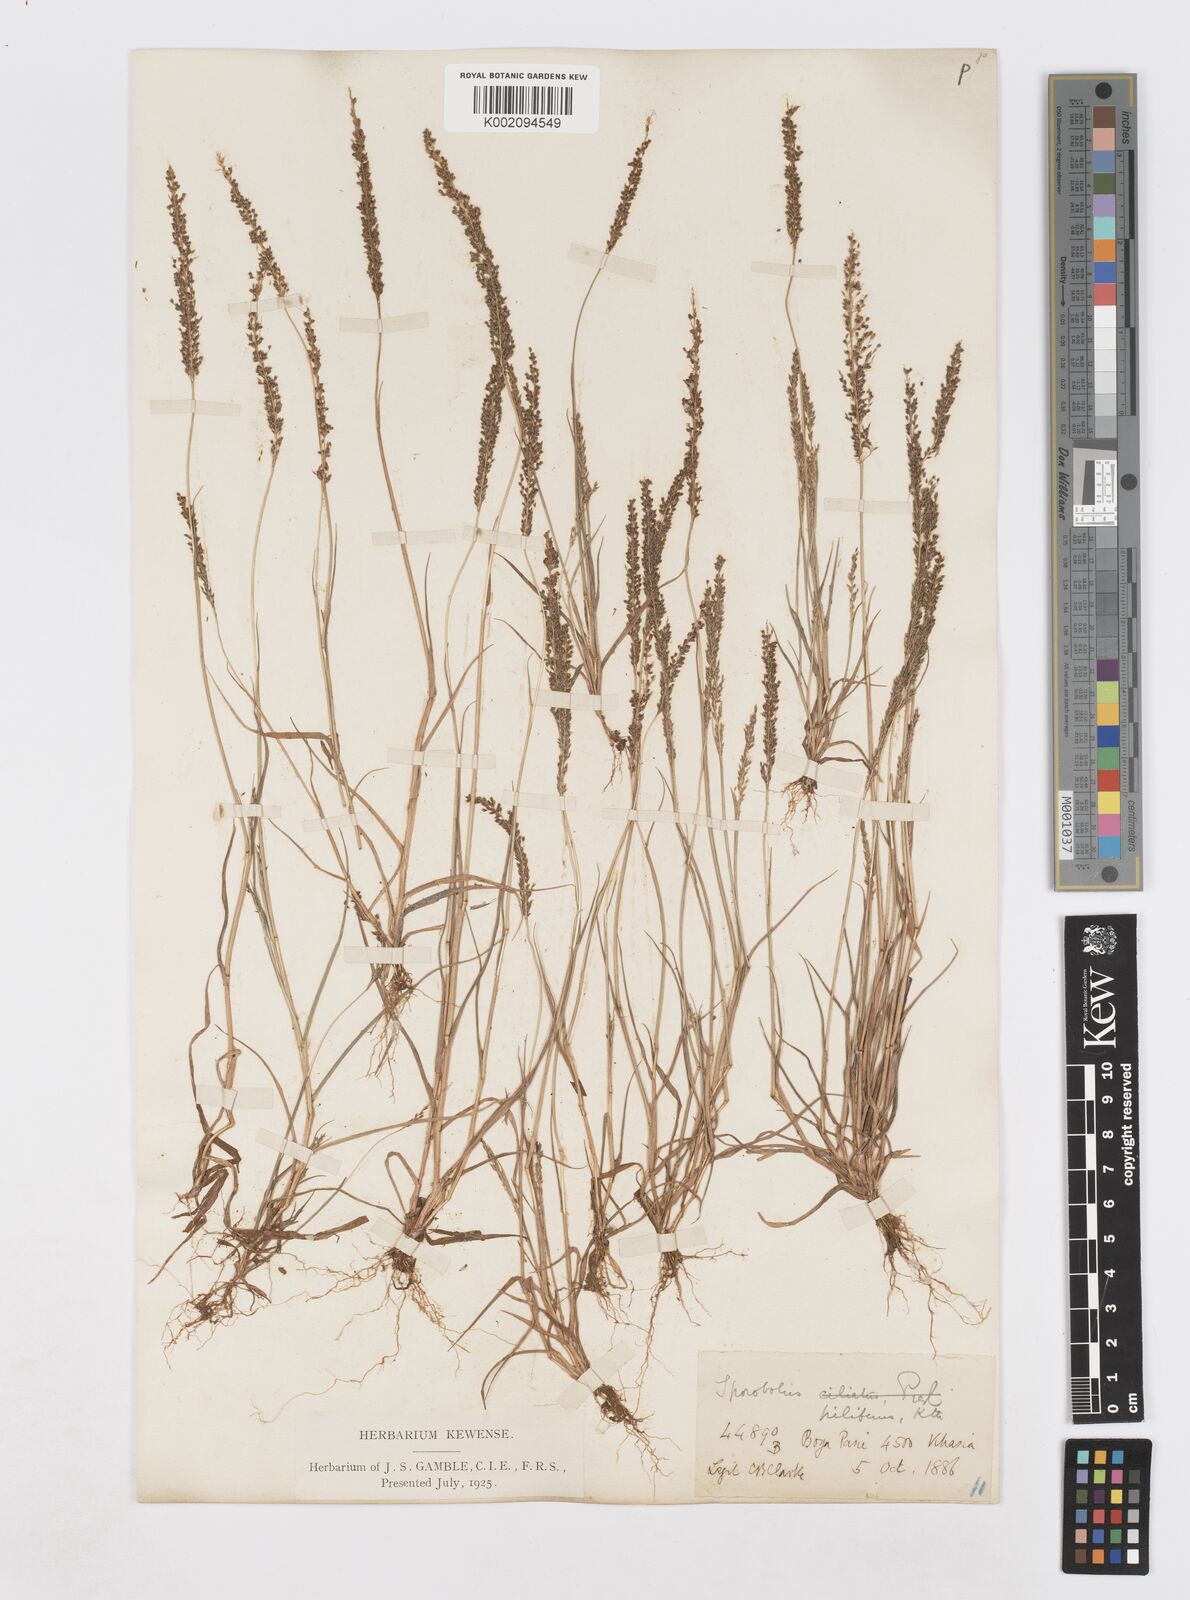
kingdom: Plantae
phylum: Tracheophyta
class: Liliopsida
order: Poales
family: Poaceae
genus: Sporobolus
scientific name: Sporobolus pilifer
